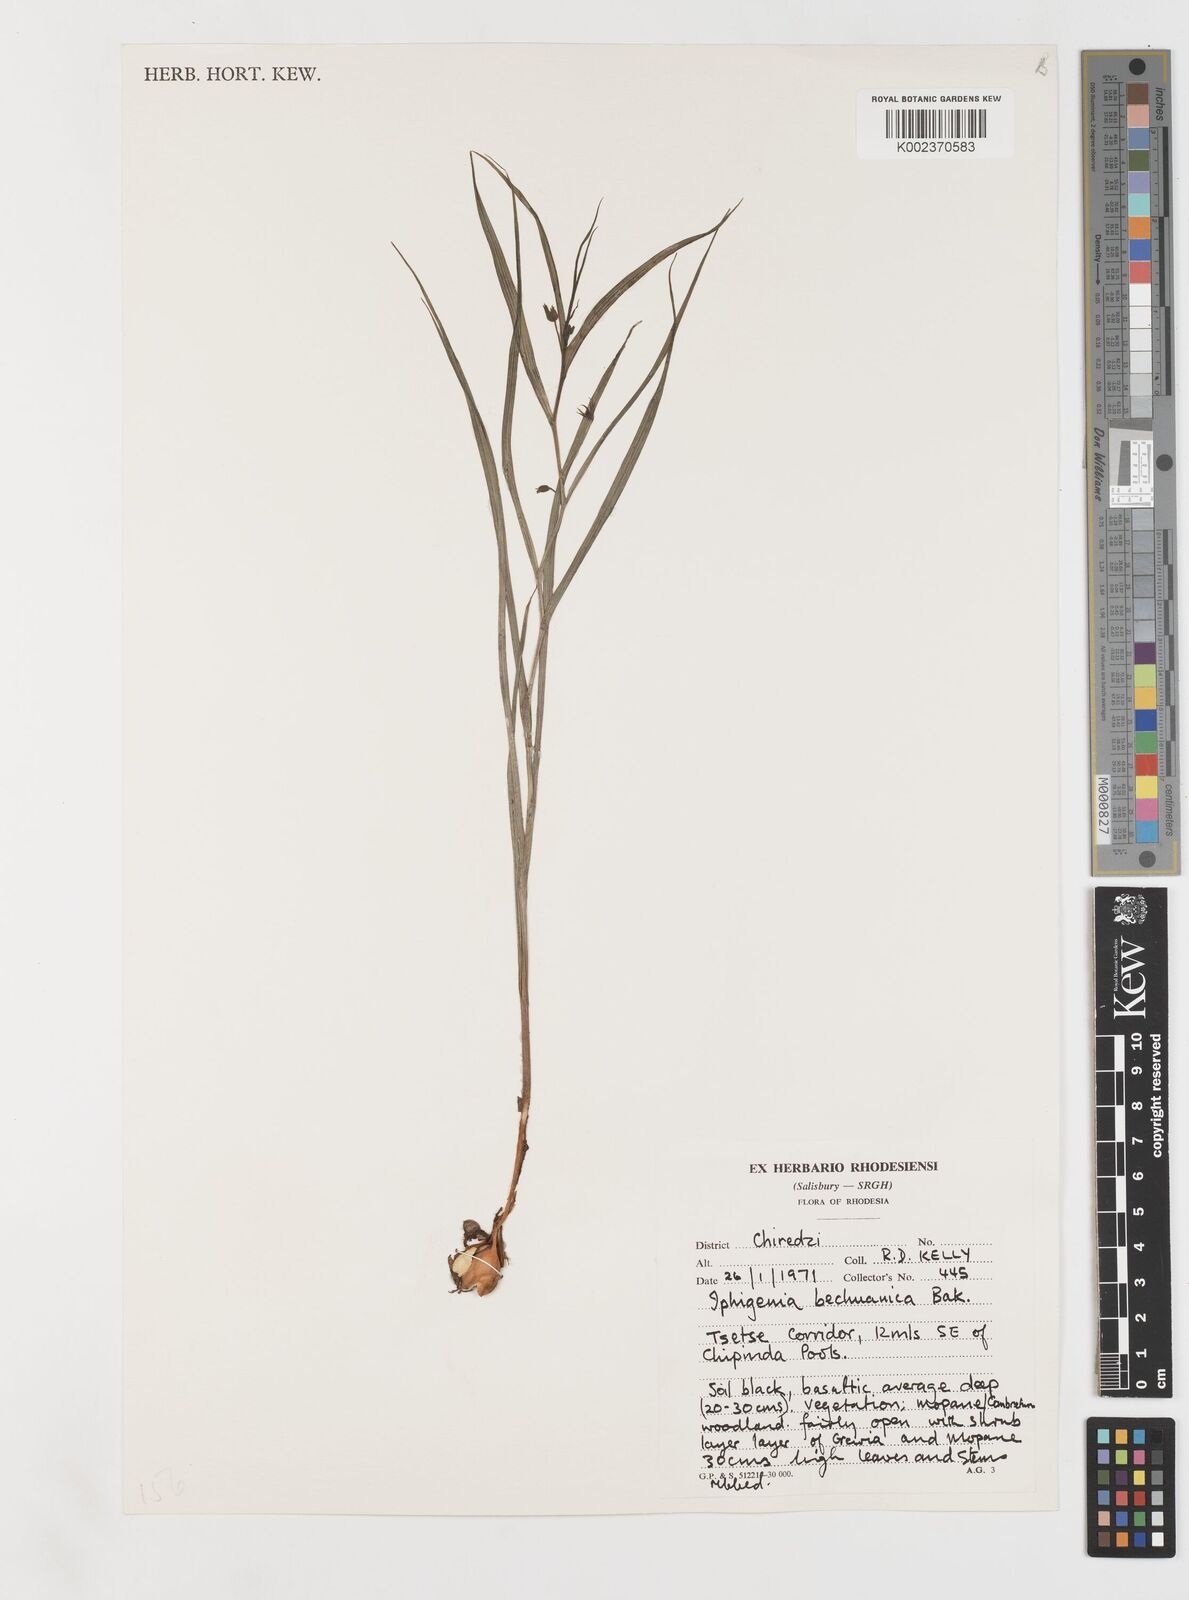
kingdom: Plantae
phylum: Tracheophyta
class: Liliopsida
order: Liliales
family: Colchicaceae
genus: Iphigenia
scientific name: Iphigenia oliveri
